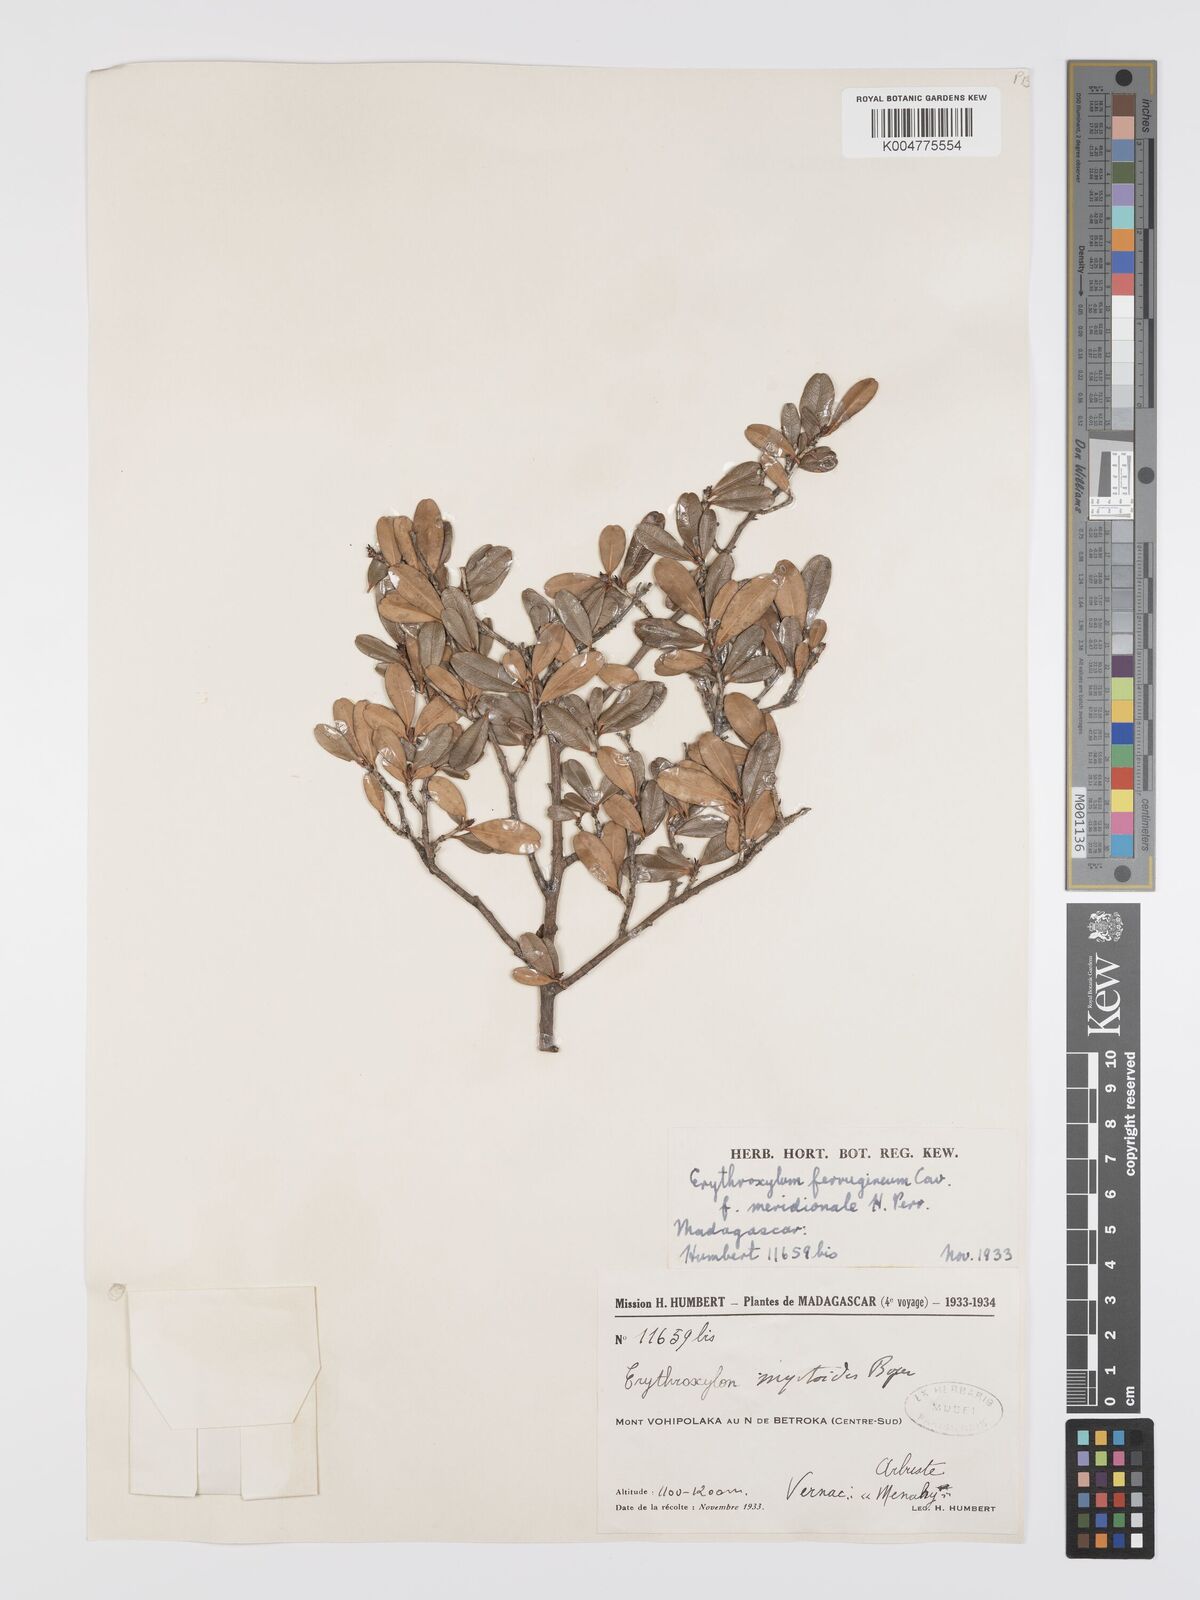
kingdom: Plantae
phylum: Tracheophyta
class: Magnoliopsida
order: Malpighiales
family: Erythroxylaceae
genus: Erythroxylum
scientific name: Erythroxylum ferrugineum
